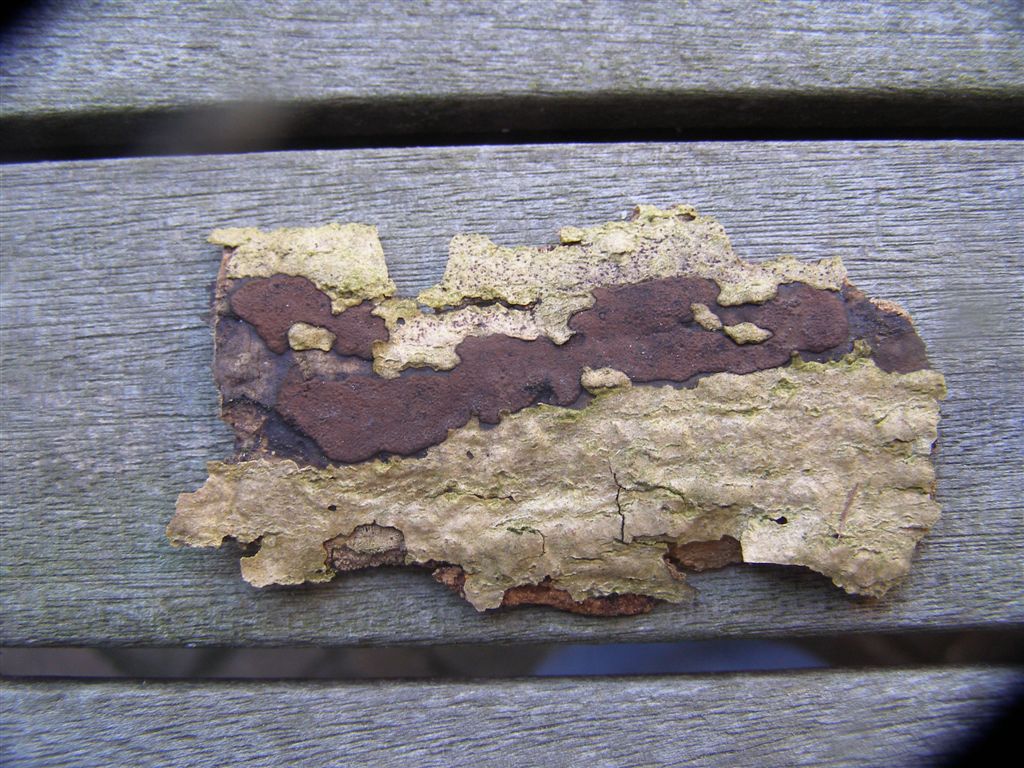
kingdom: Fungi
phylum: Ascomycota
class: Sordariomycetes
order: Xylariales
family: Hypoxylaceae
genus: Hypoxylon
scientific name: Hypoxylon petriniae
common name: nedsænket kulbær
